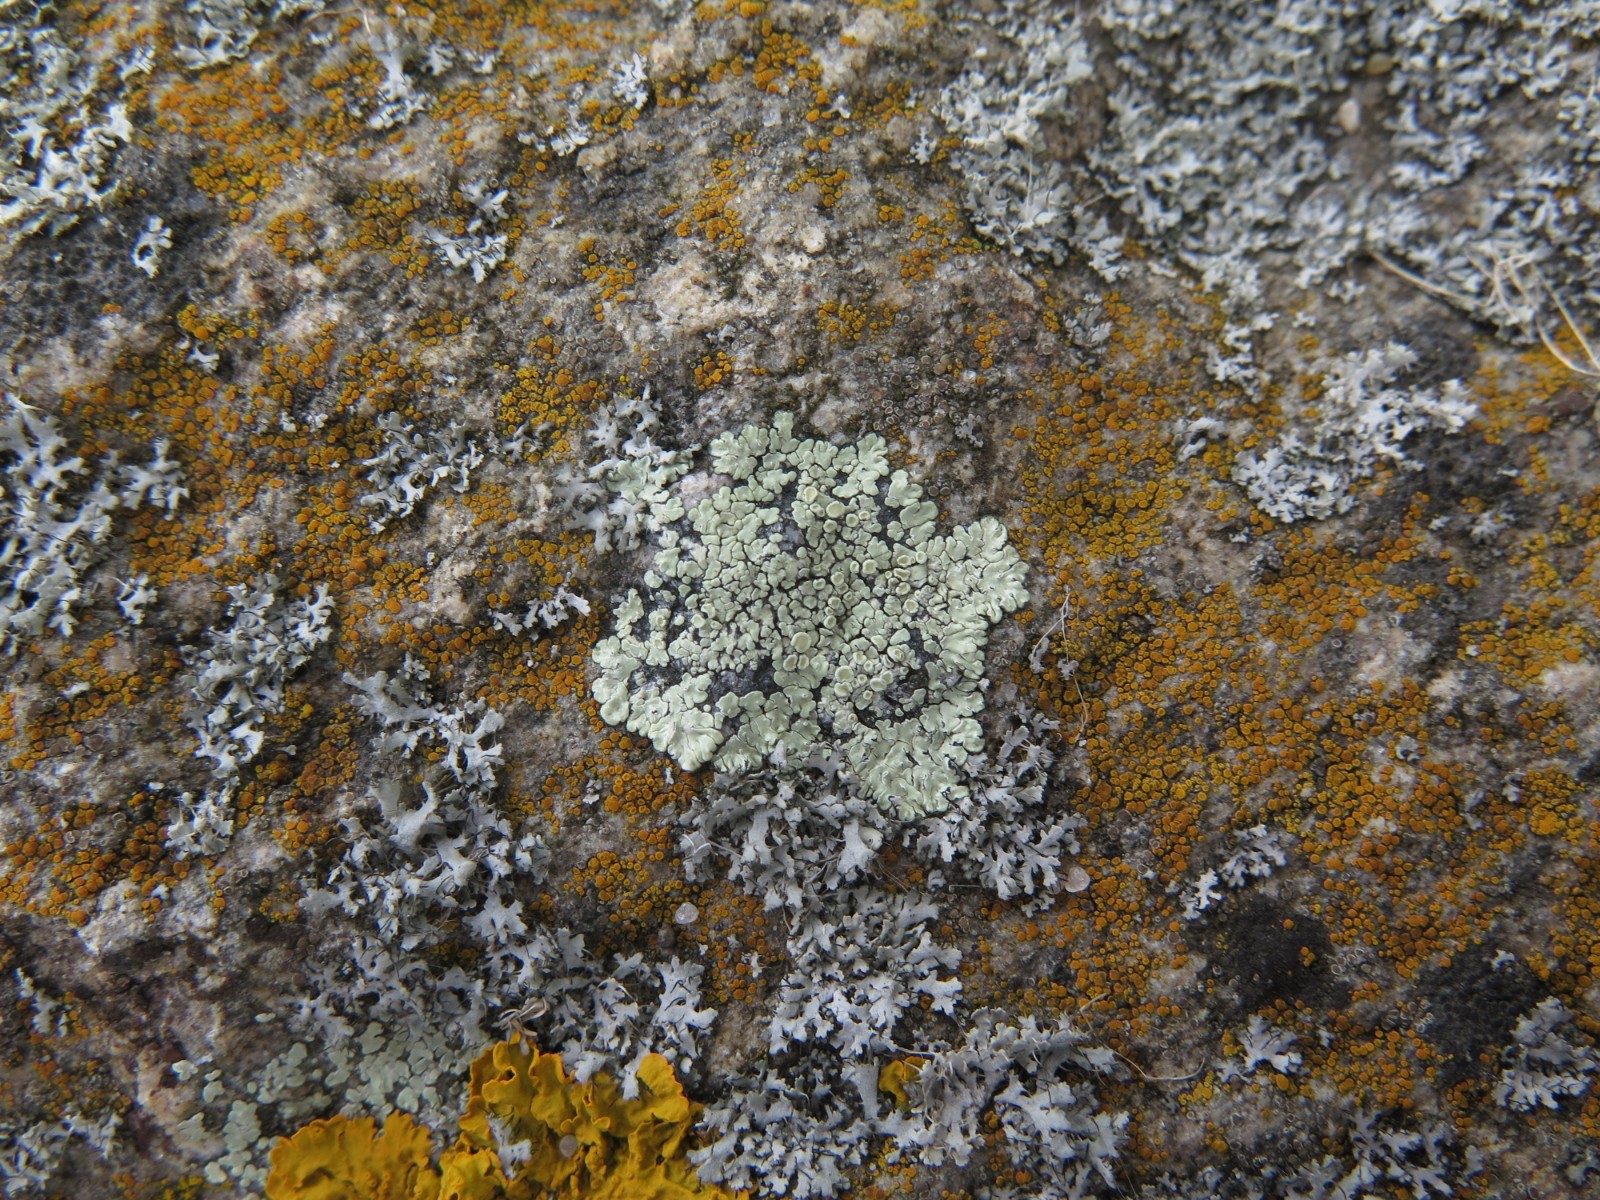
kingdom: Fungi
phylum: Ascomycota
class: Lecanoromycetes
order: Lecanorales
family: Lecanoraceae
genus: Protoparmeliopsis
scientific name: Protoparmeliopsis muralis
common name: randfliget kantskivelav
